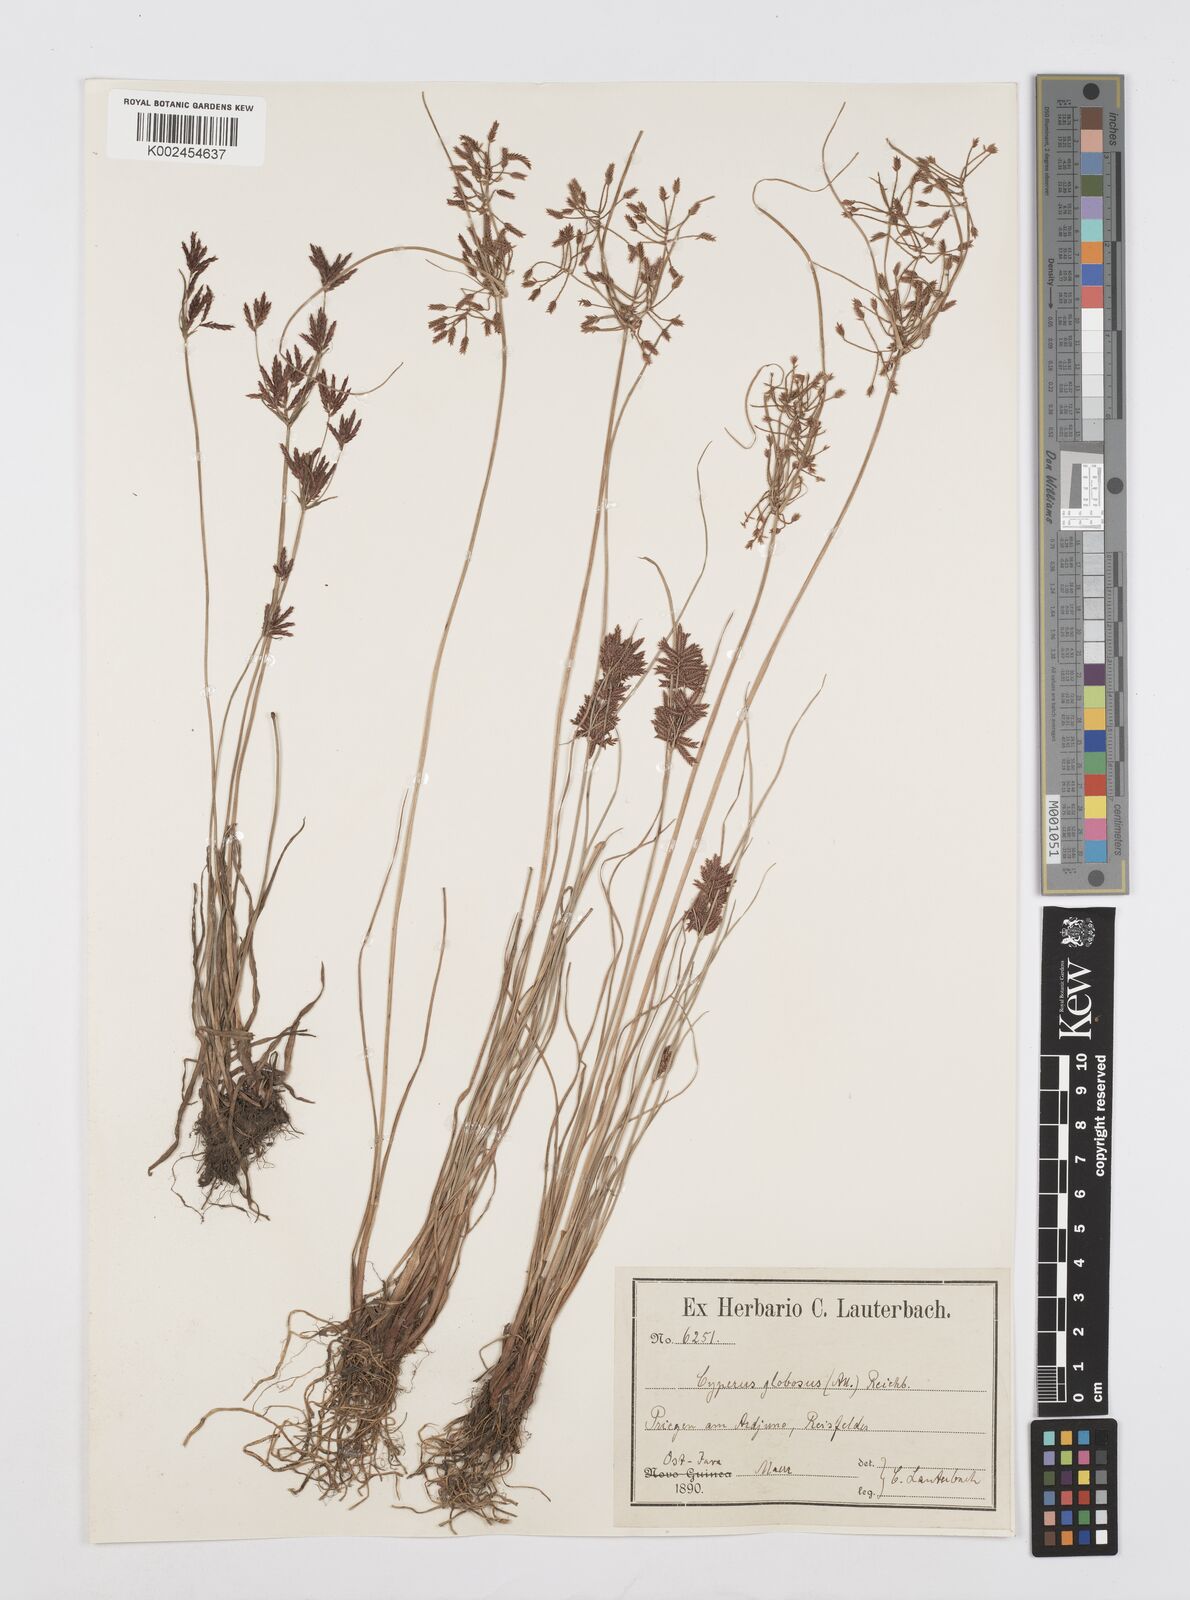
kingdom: Plantae
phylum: Tracheophyta
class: Liliopsida
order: Poales
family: Cyperaceae
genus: Cyperus
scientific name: Cyperus flavidus
